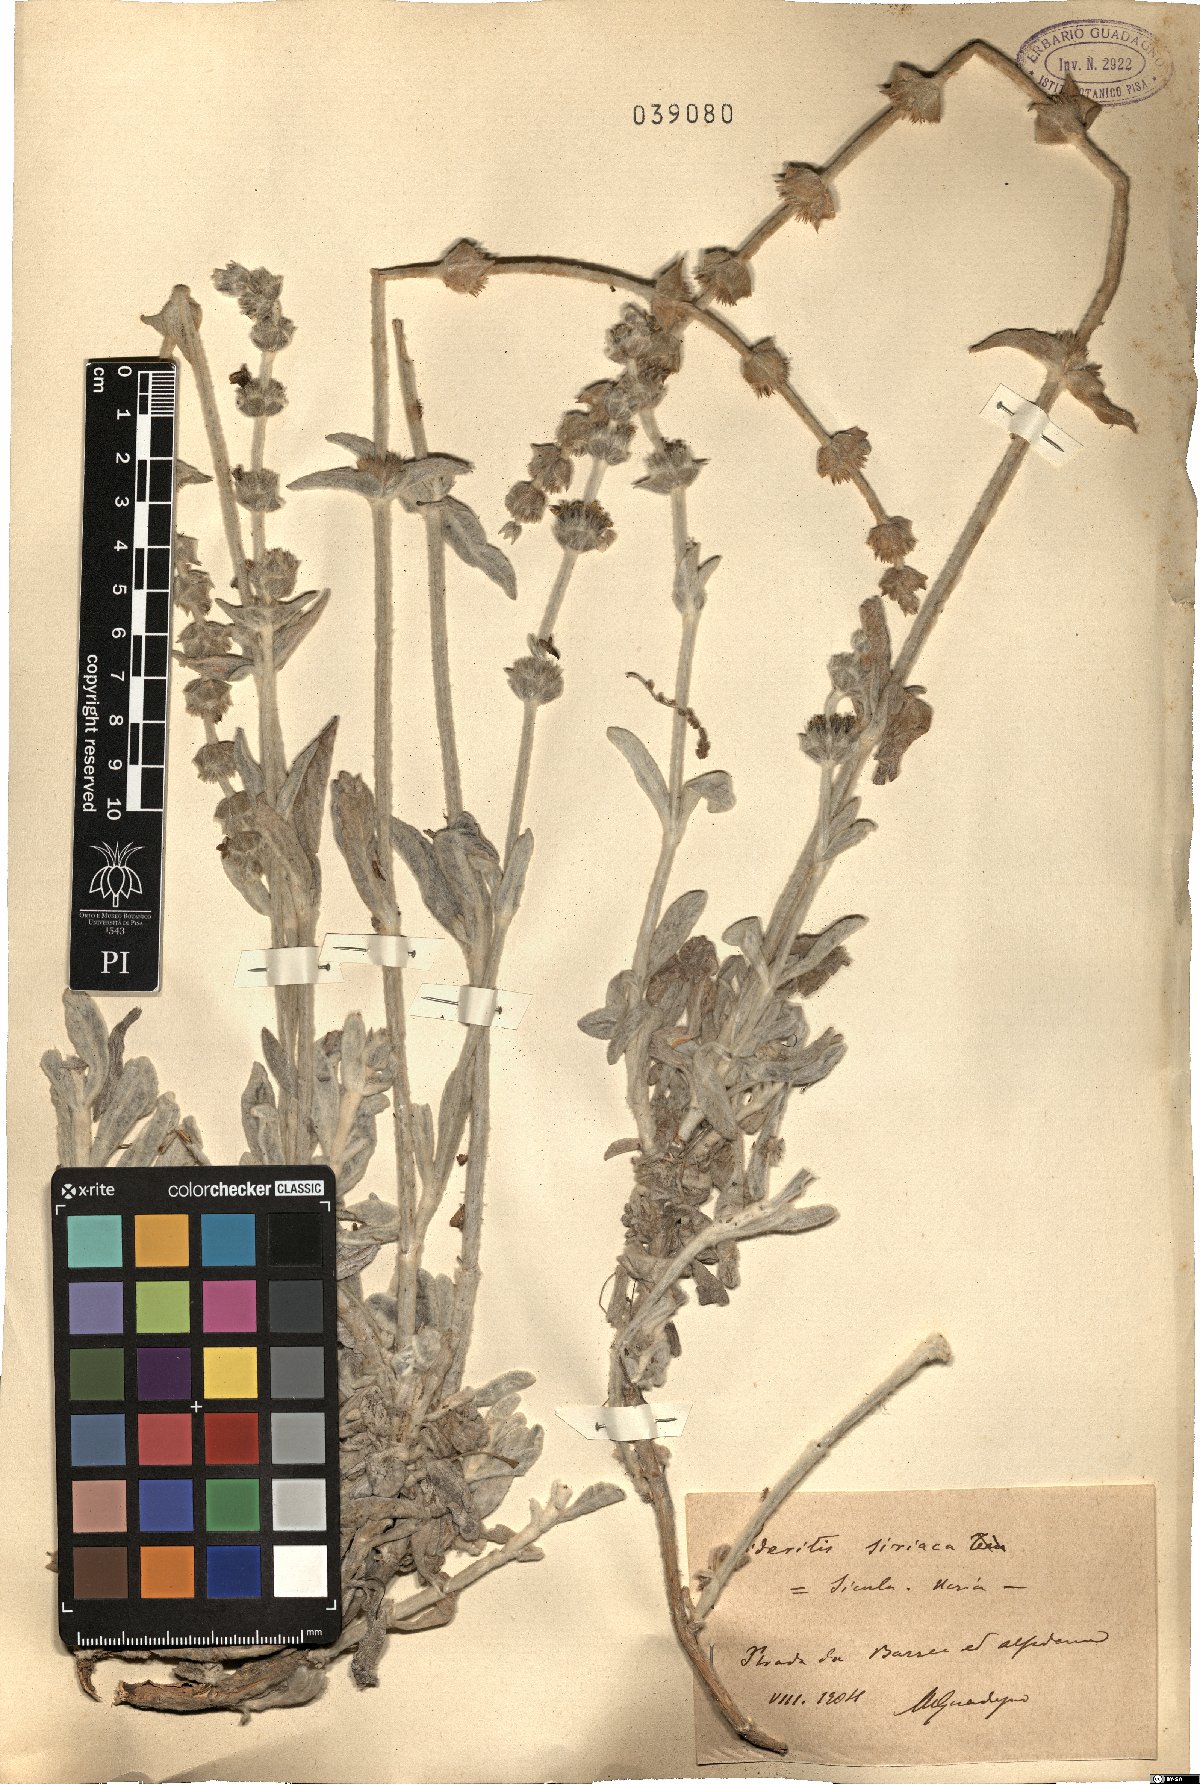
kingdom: Plantae
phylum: Tracheophyta
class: Magnoliopsida
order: Lamiales
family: Lamiaceae
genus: Sideritis
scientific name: Sideritis italica
